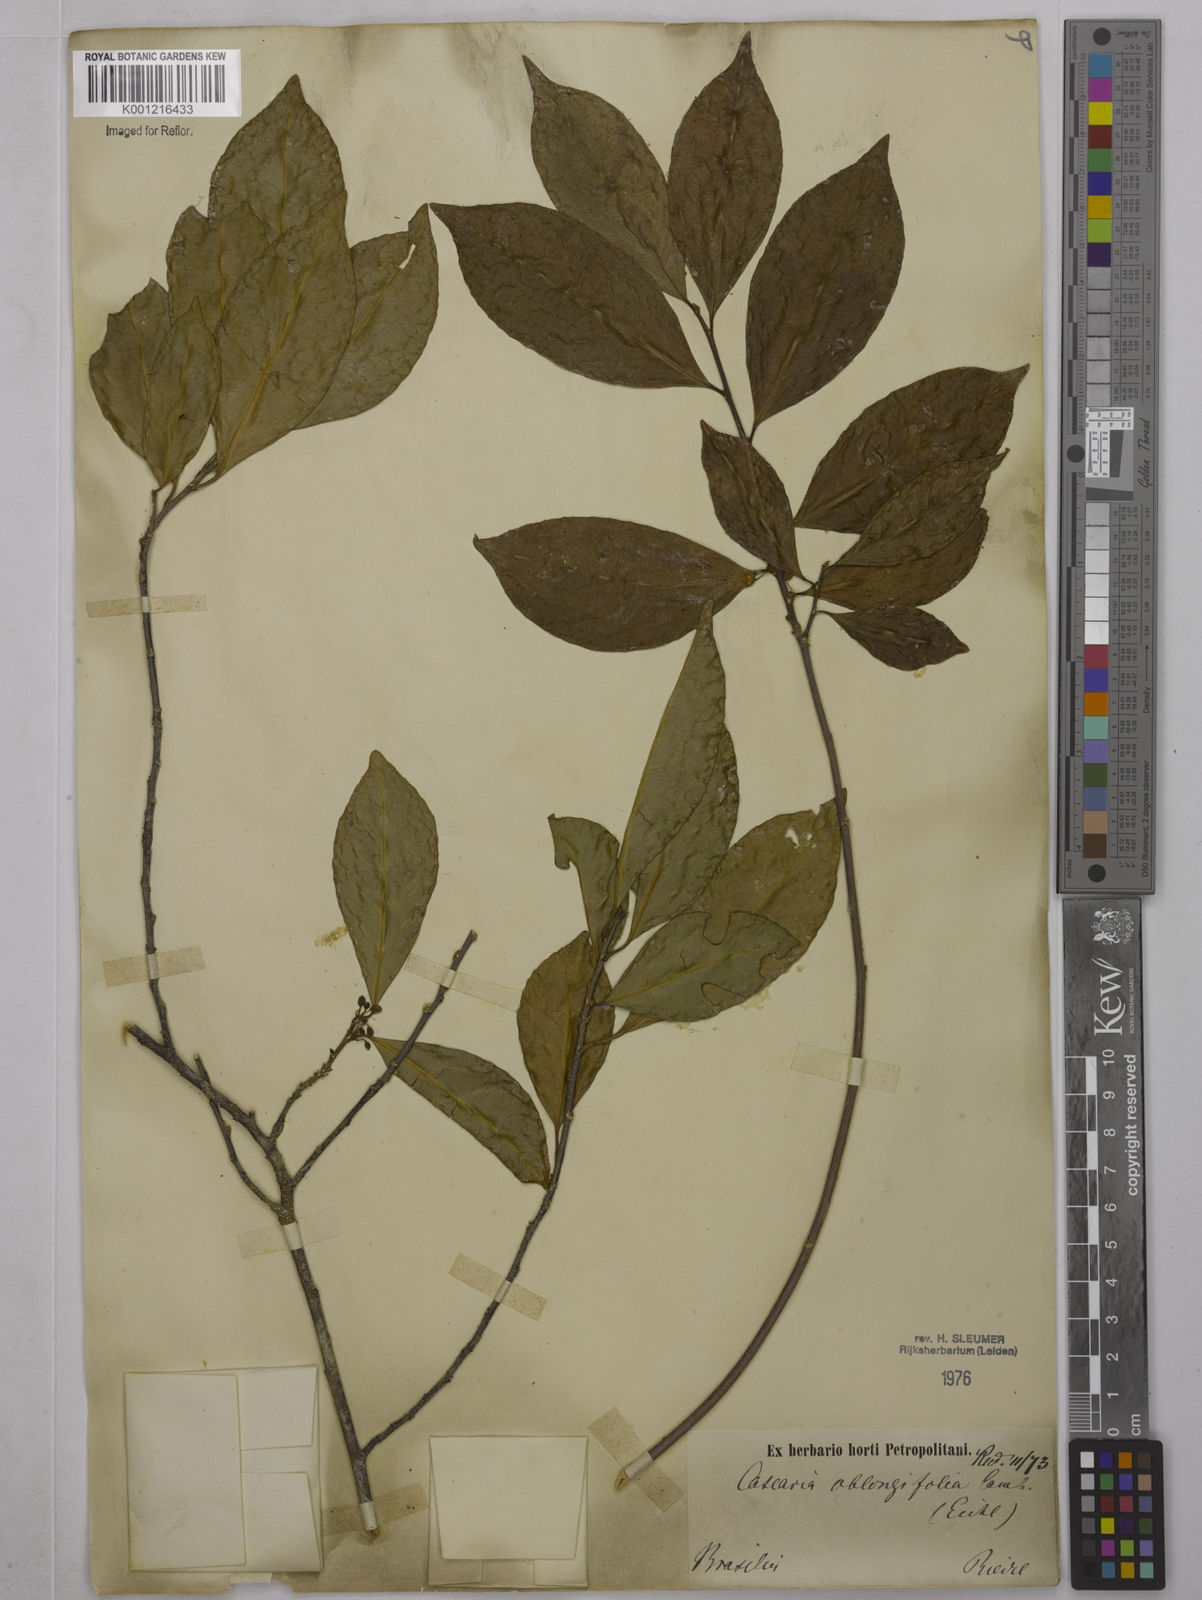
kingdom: Plantae
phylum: Tracheophyta
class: Magnoliopsida
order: Malpighiales
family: Salicaceae
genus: Casearia
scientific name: Casearia oblongifolia
